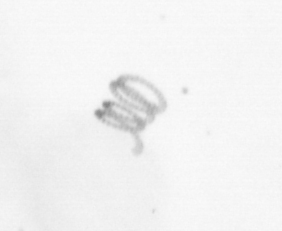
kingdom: Chromista
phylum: Ochrophyta
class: Bacillariophyceae
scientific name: Bacillariophyceae
